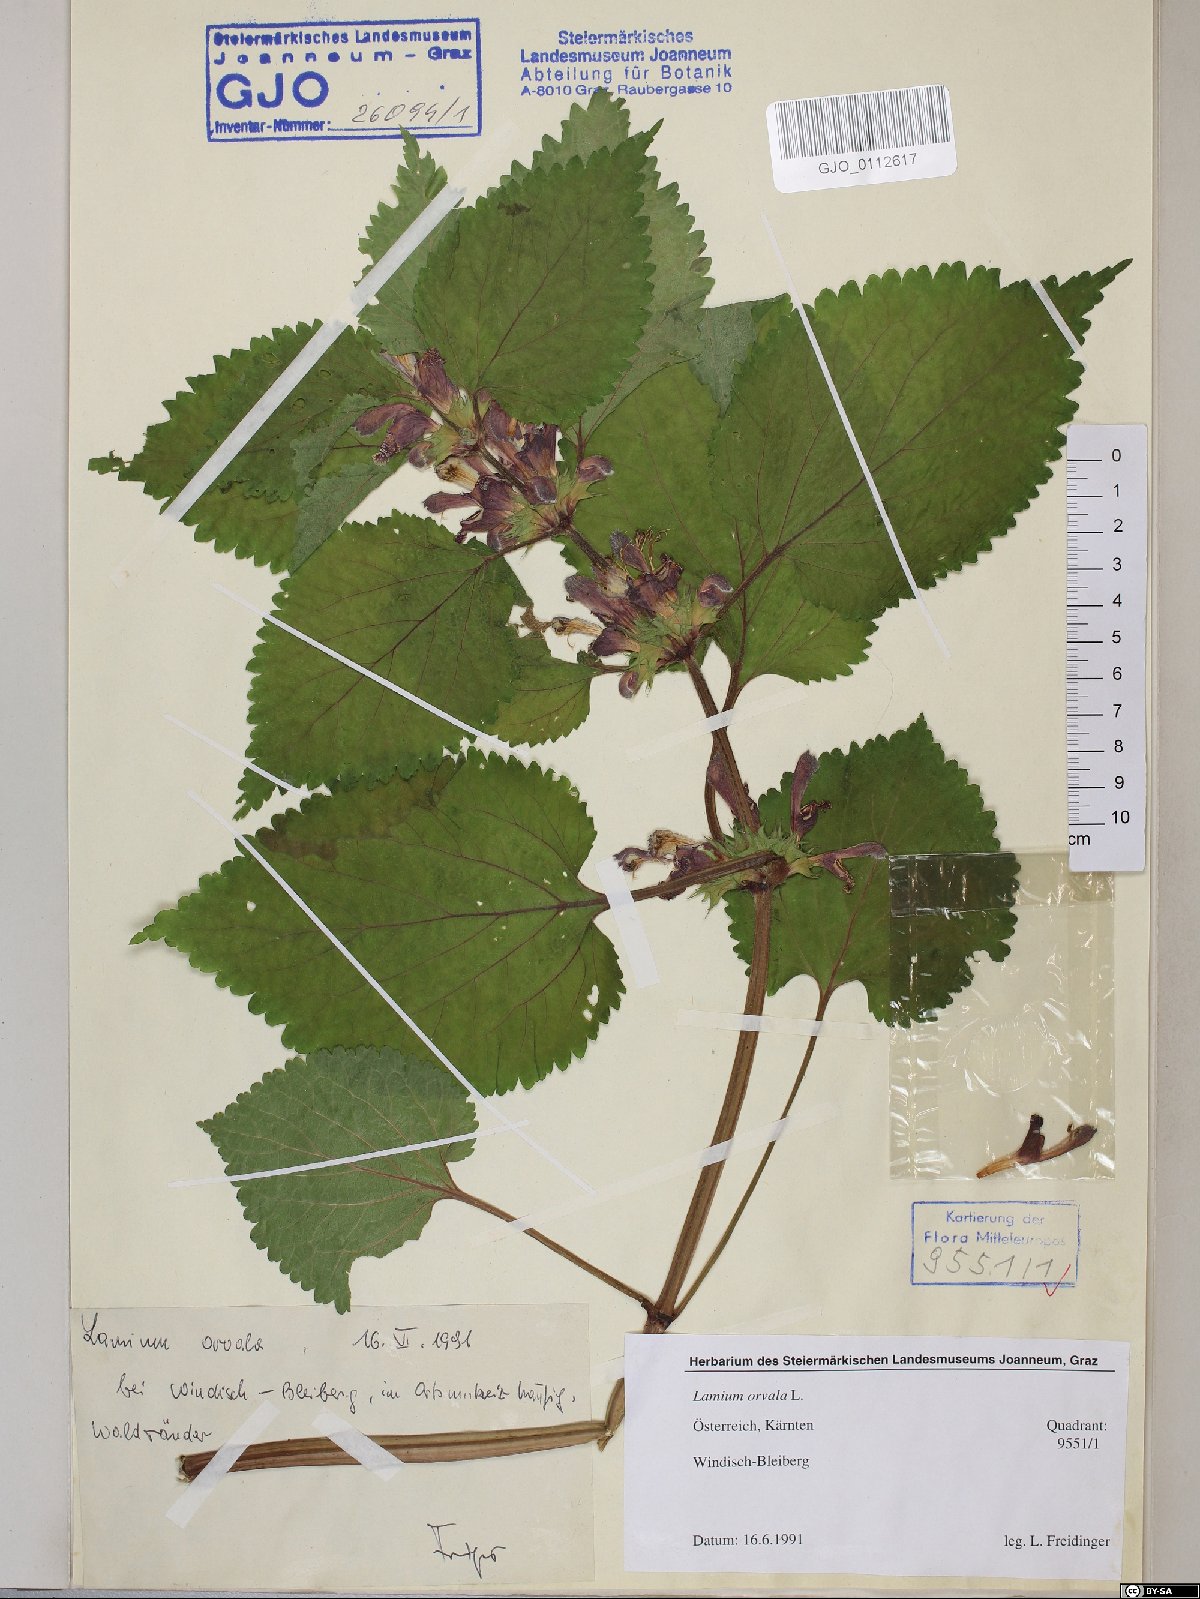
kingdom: Plantae
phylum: Tracheophyta
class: Magnoliopsida
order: Lamiales
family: Lamiaceae
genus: Lamium
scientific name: Lamium orvala
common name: Balm-leaved archangel
